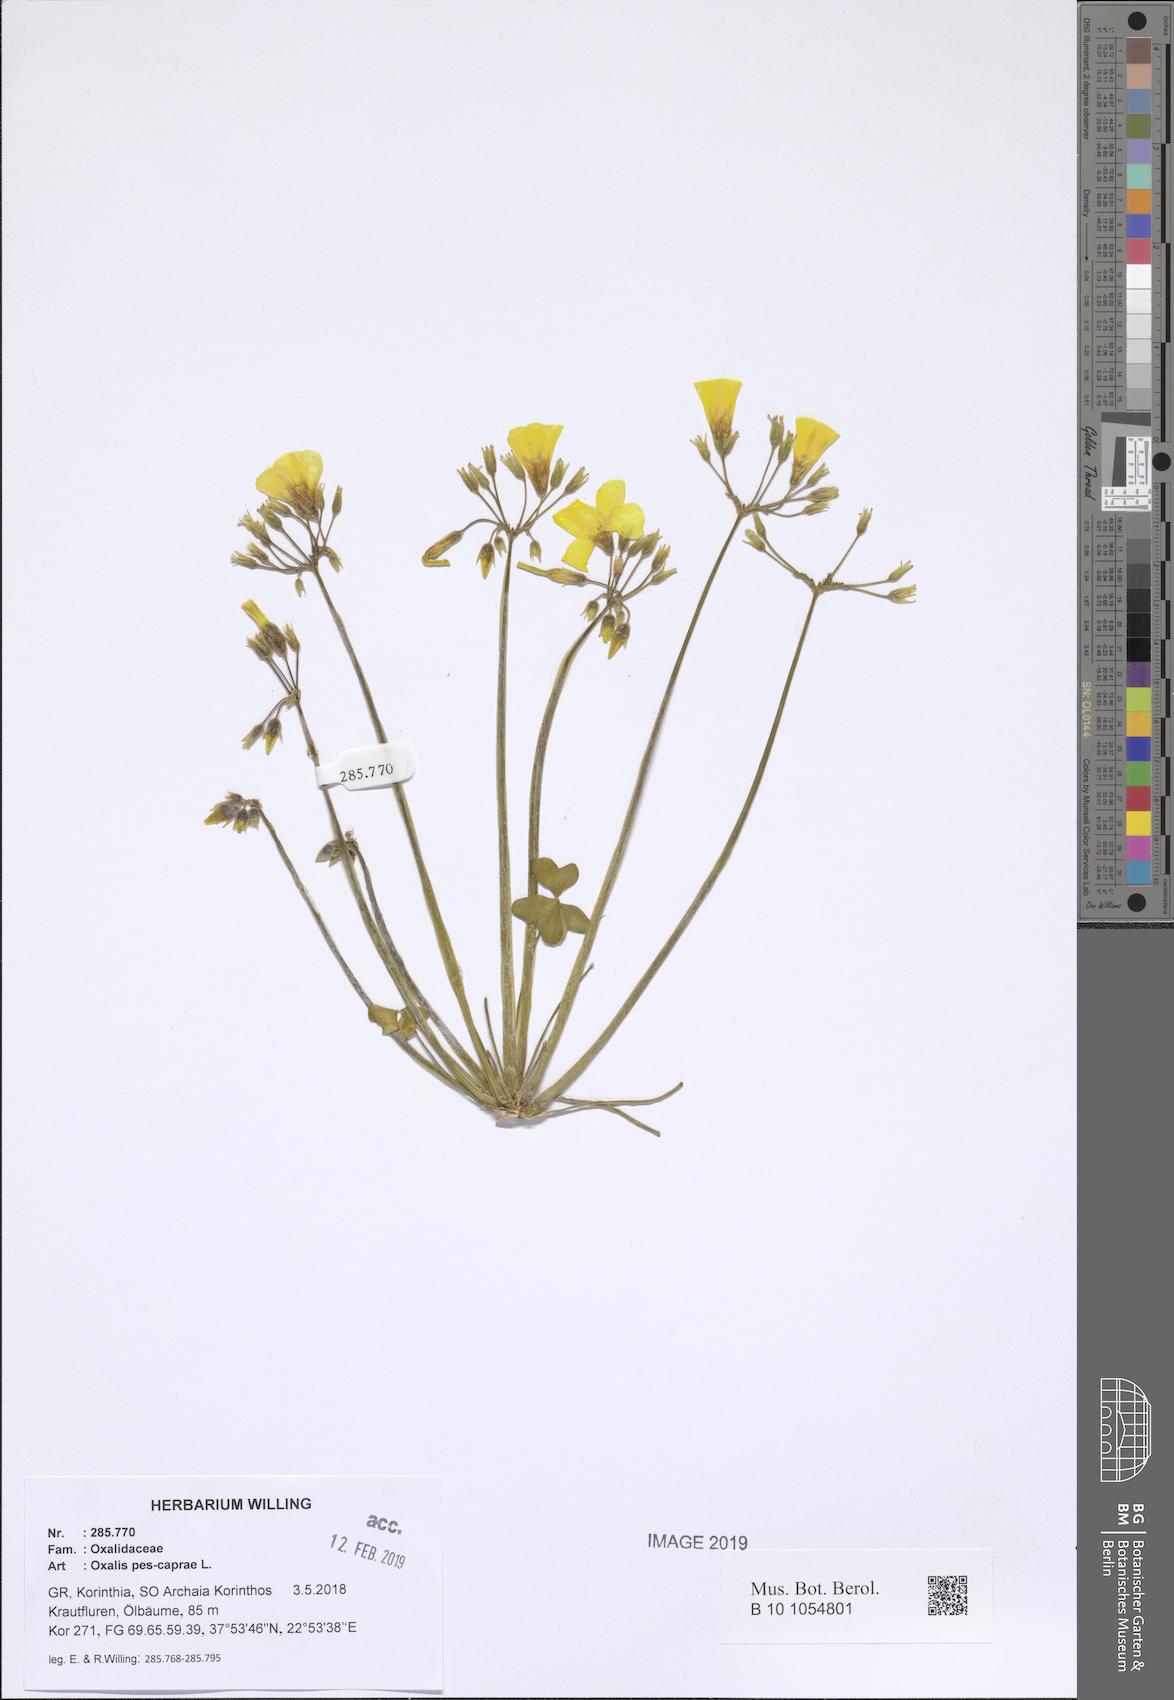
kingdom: Plantae
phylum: Tracheophyta
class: Magnoliopsida
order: Oxalidales
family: Oxalidaceae
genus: Oxalis
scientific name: Oxalis pes-caprae
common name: Bermuda-buttercup
